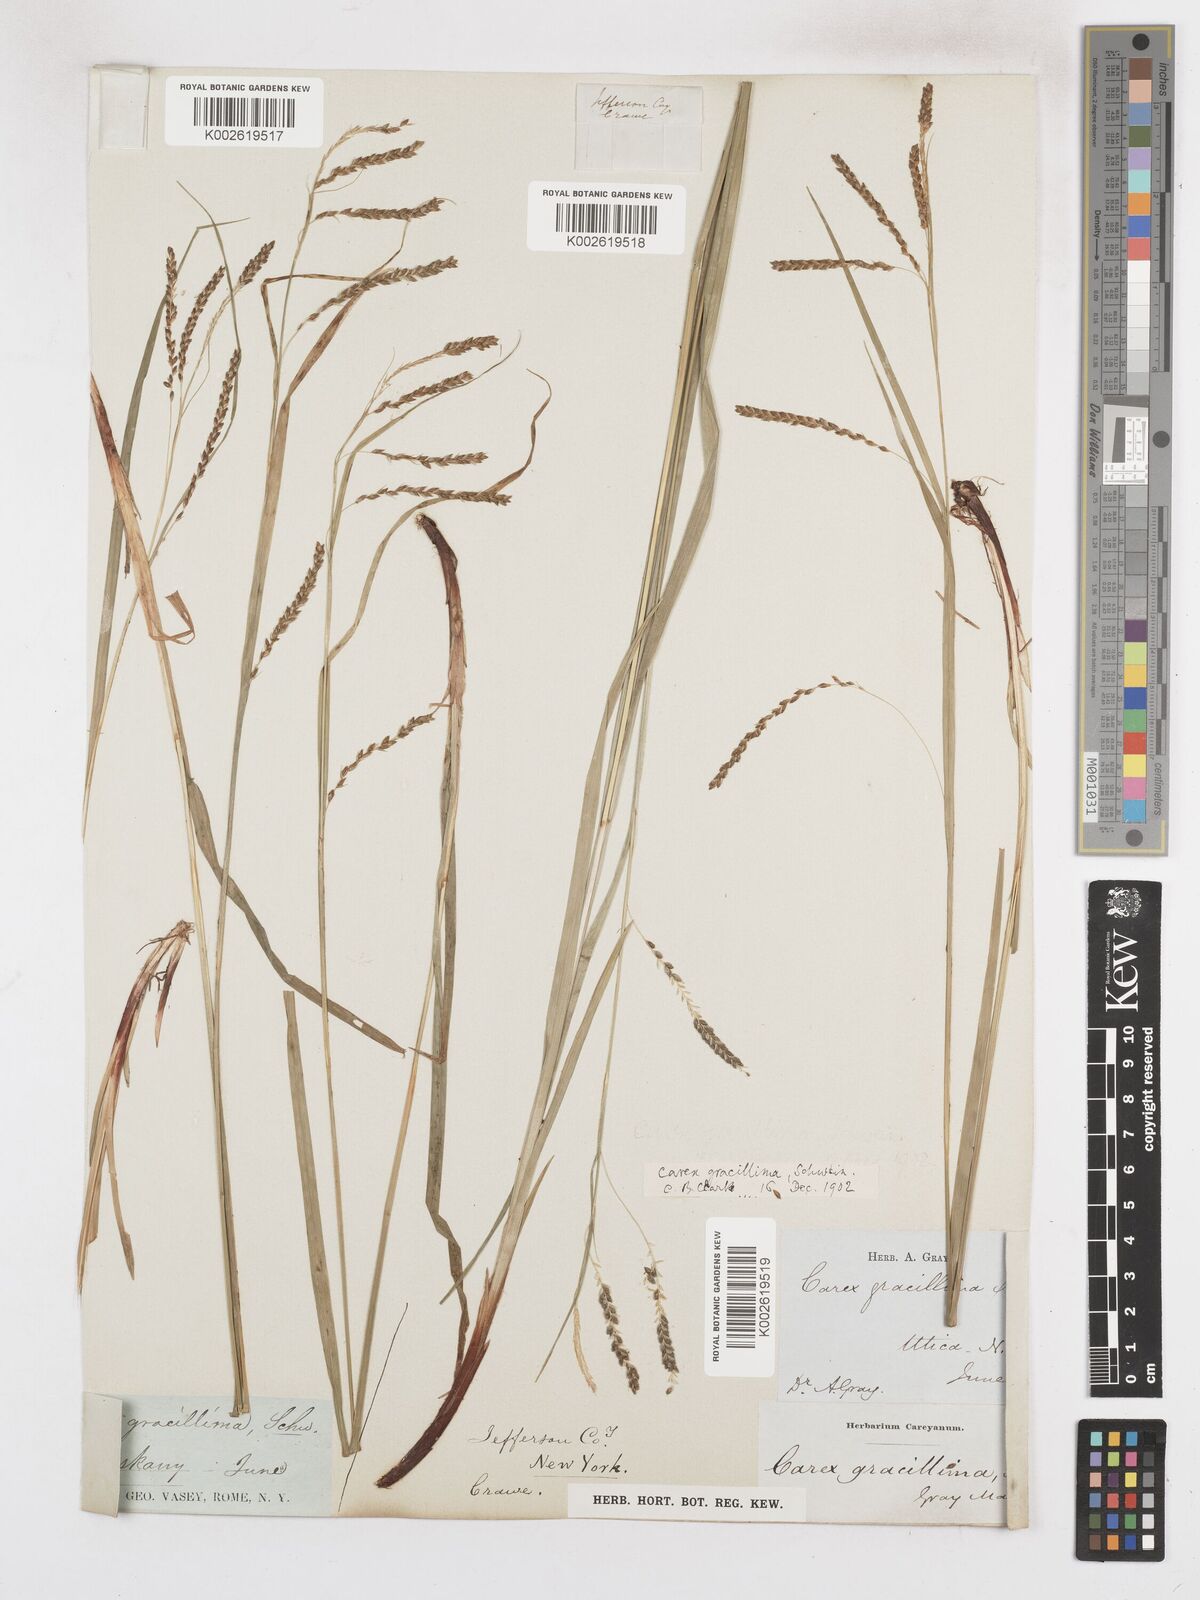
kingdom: Plantae
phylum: Tracheophyta
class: Liliopsida
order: Poales
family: Cyperaceae
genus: Carex
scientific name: Carex gracillima
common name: Graceful sedge
